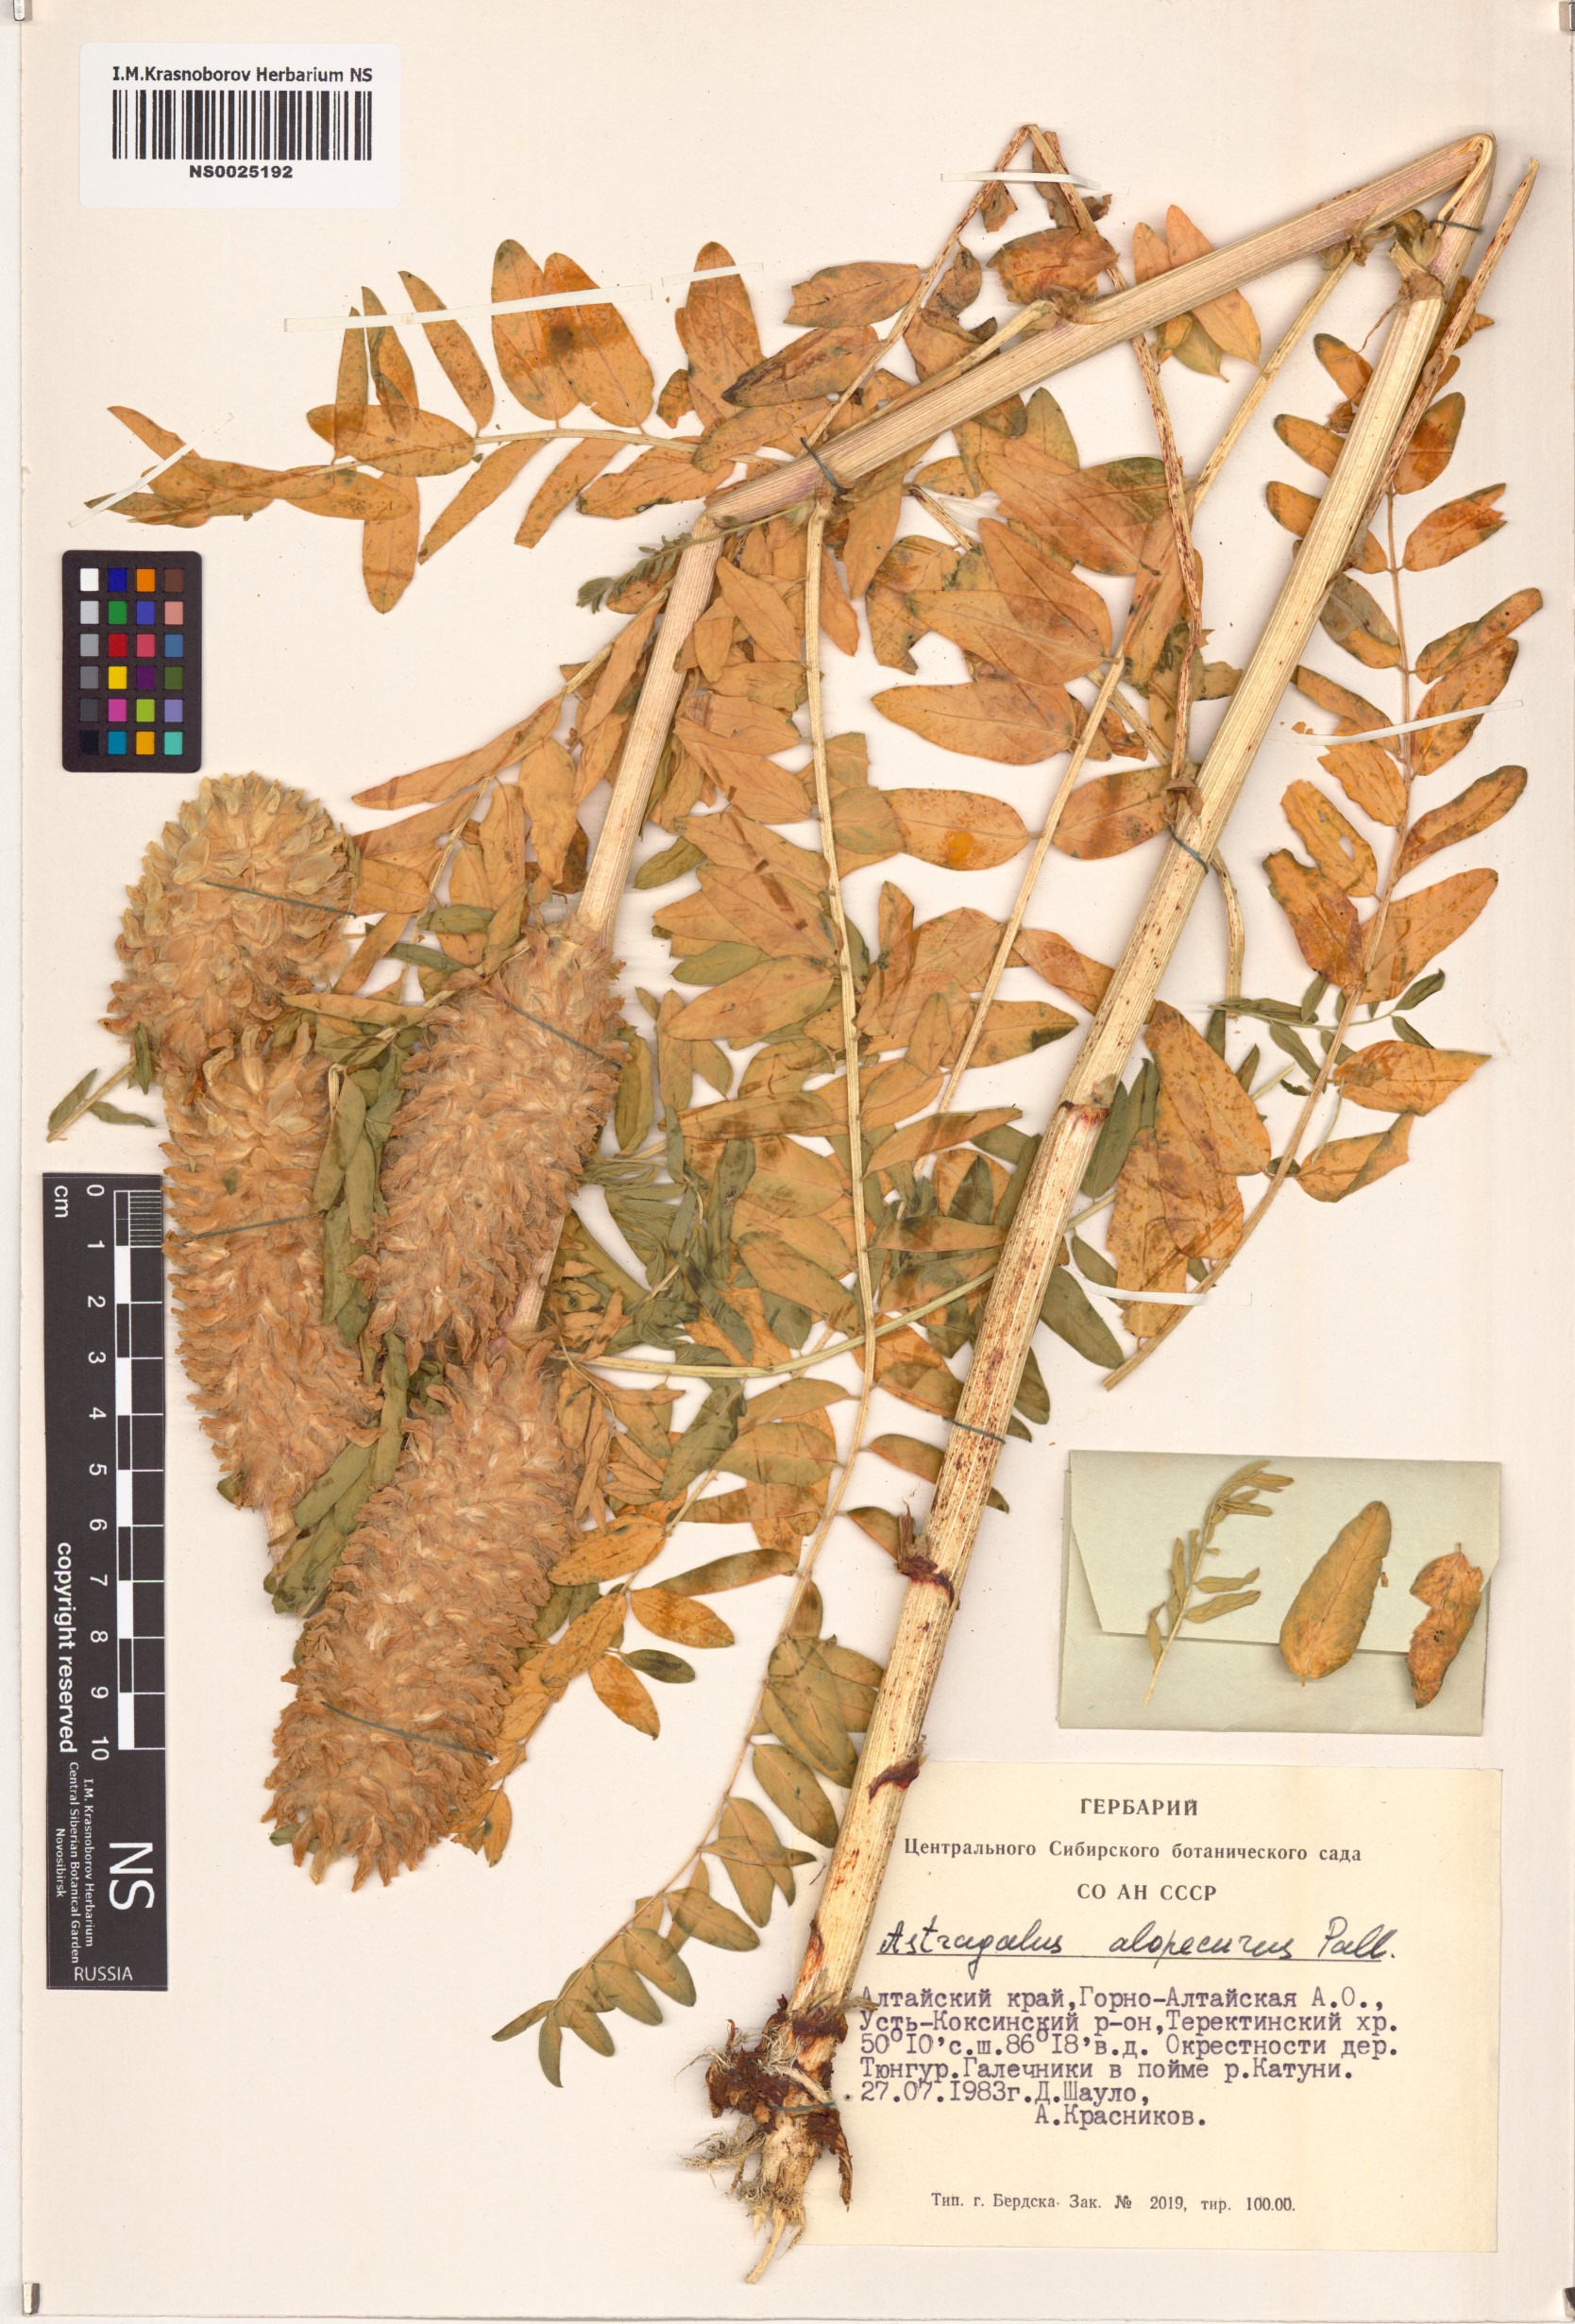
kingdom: Plantae
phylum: Tracheophyta
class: Magnoliopsida
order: Fabales
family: Fabaceae
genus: Astragalus
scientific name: Astragalus alopecurus
